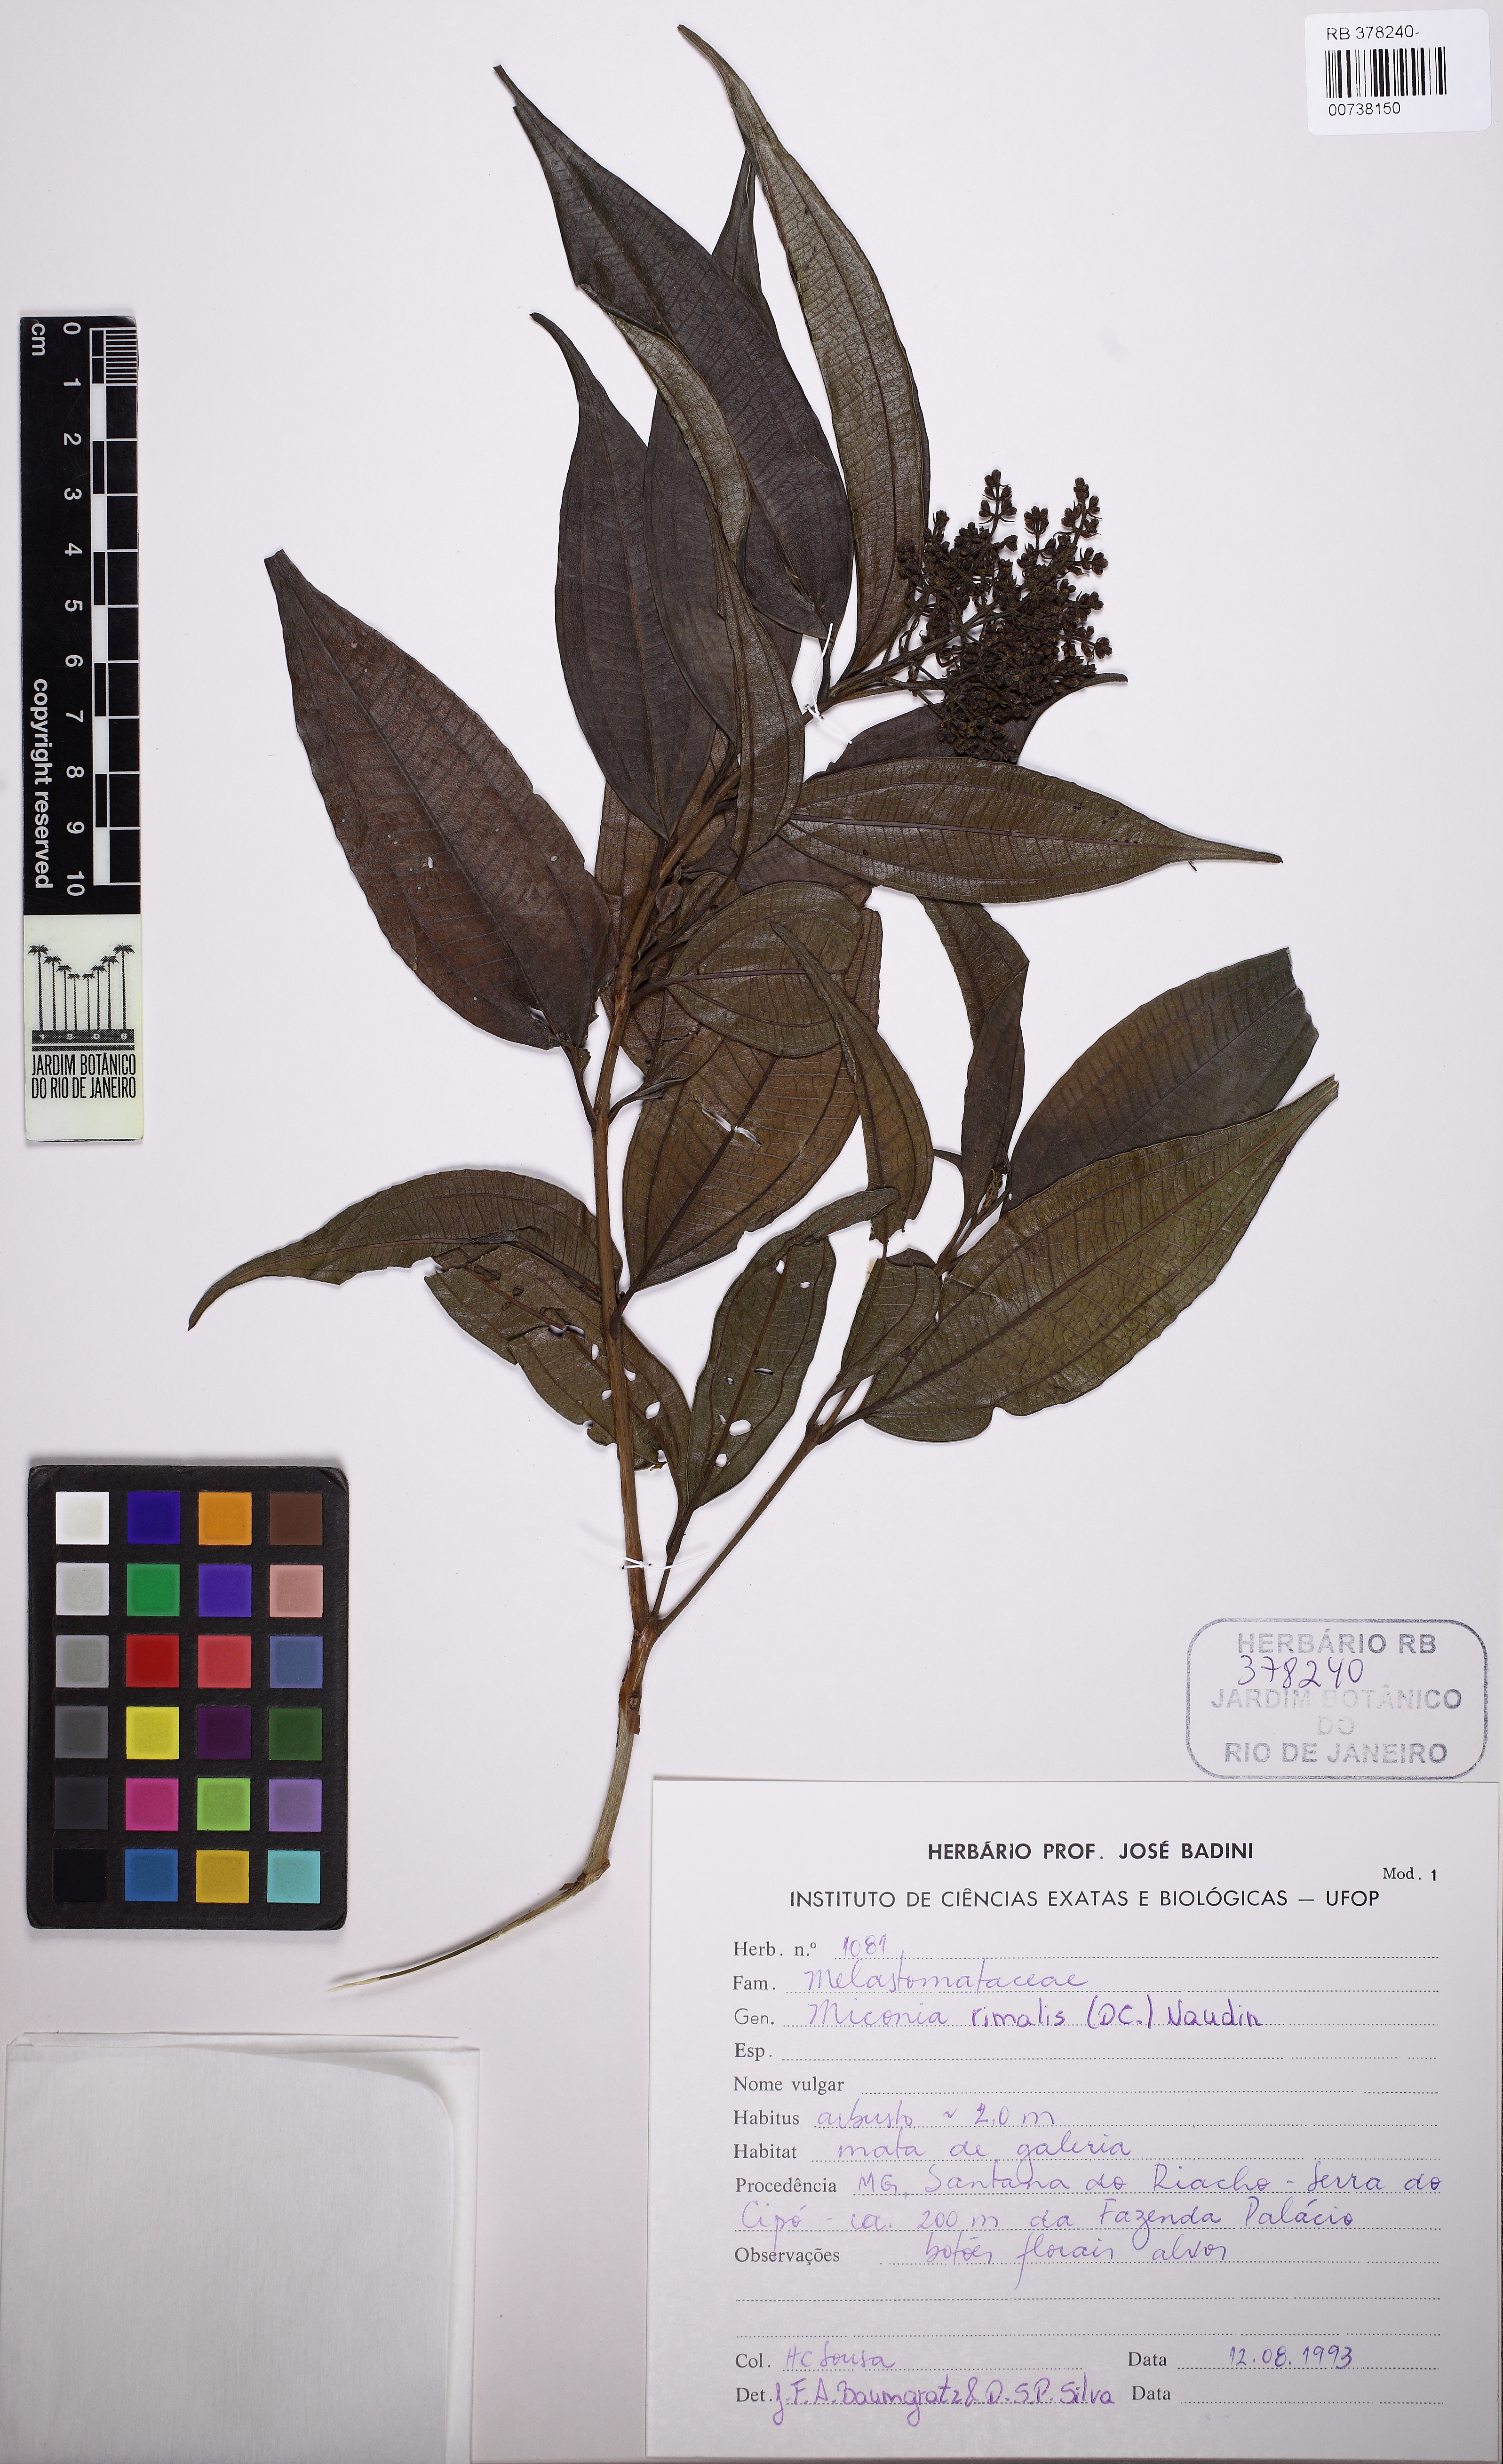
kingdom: Plantae
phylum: Tracheophyta
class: Magnoliopsida
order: Myrtales
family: Melastomataceae
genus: Miconia
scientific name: Miconia rimalis
